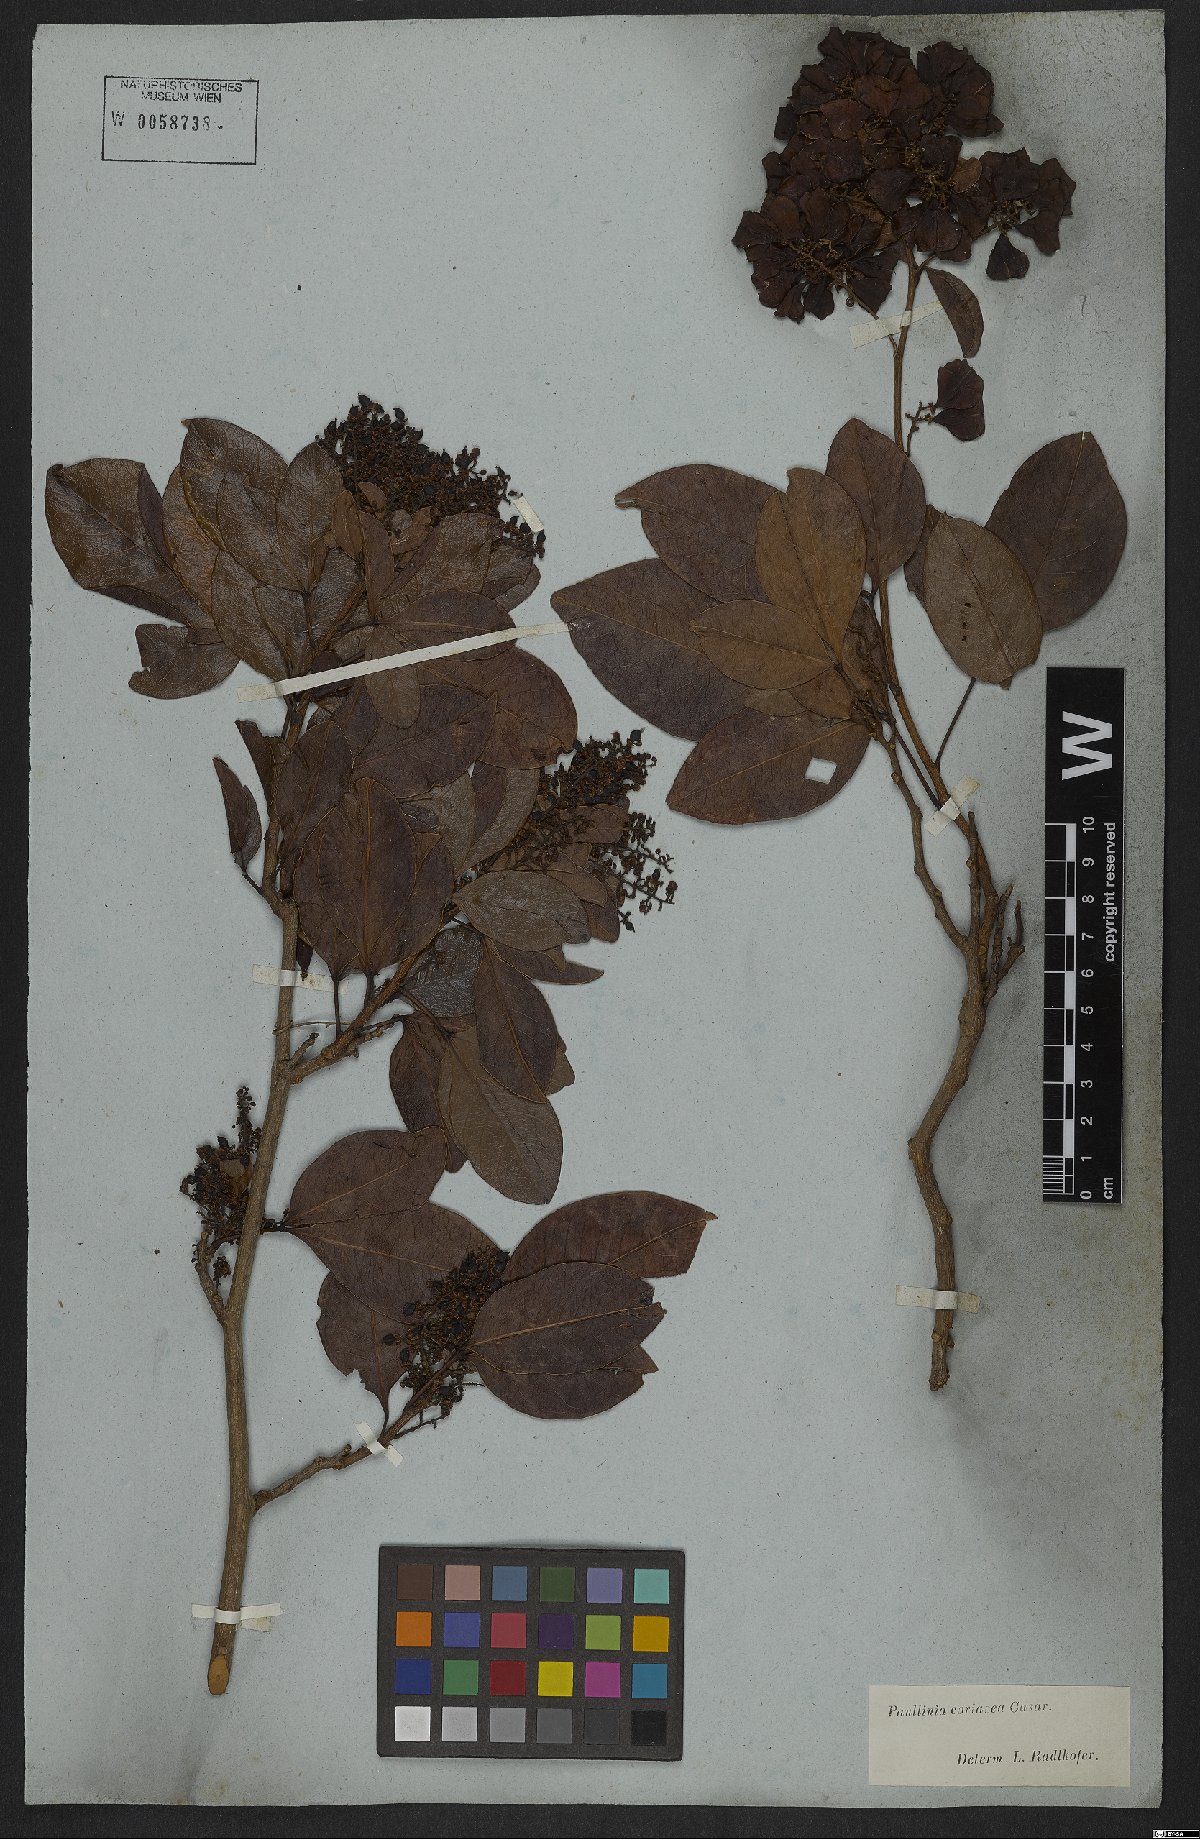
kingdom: Plantae
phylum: Tracheophyta
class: Magnoliopsida
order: Sapindales
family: Sapindaceae
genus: Paullinia
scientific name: Paullinia coriacea
